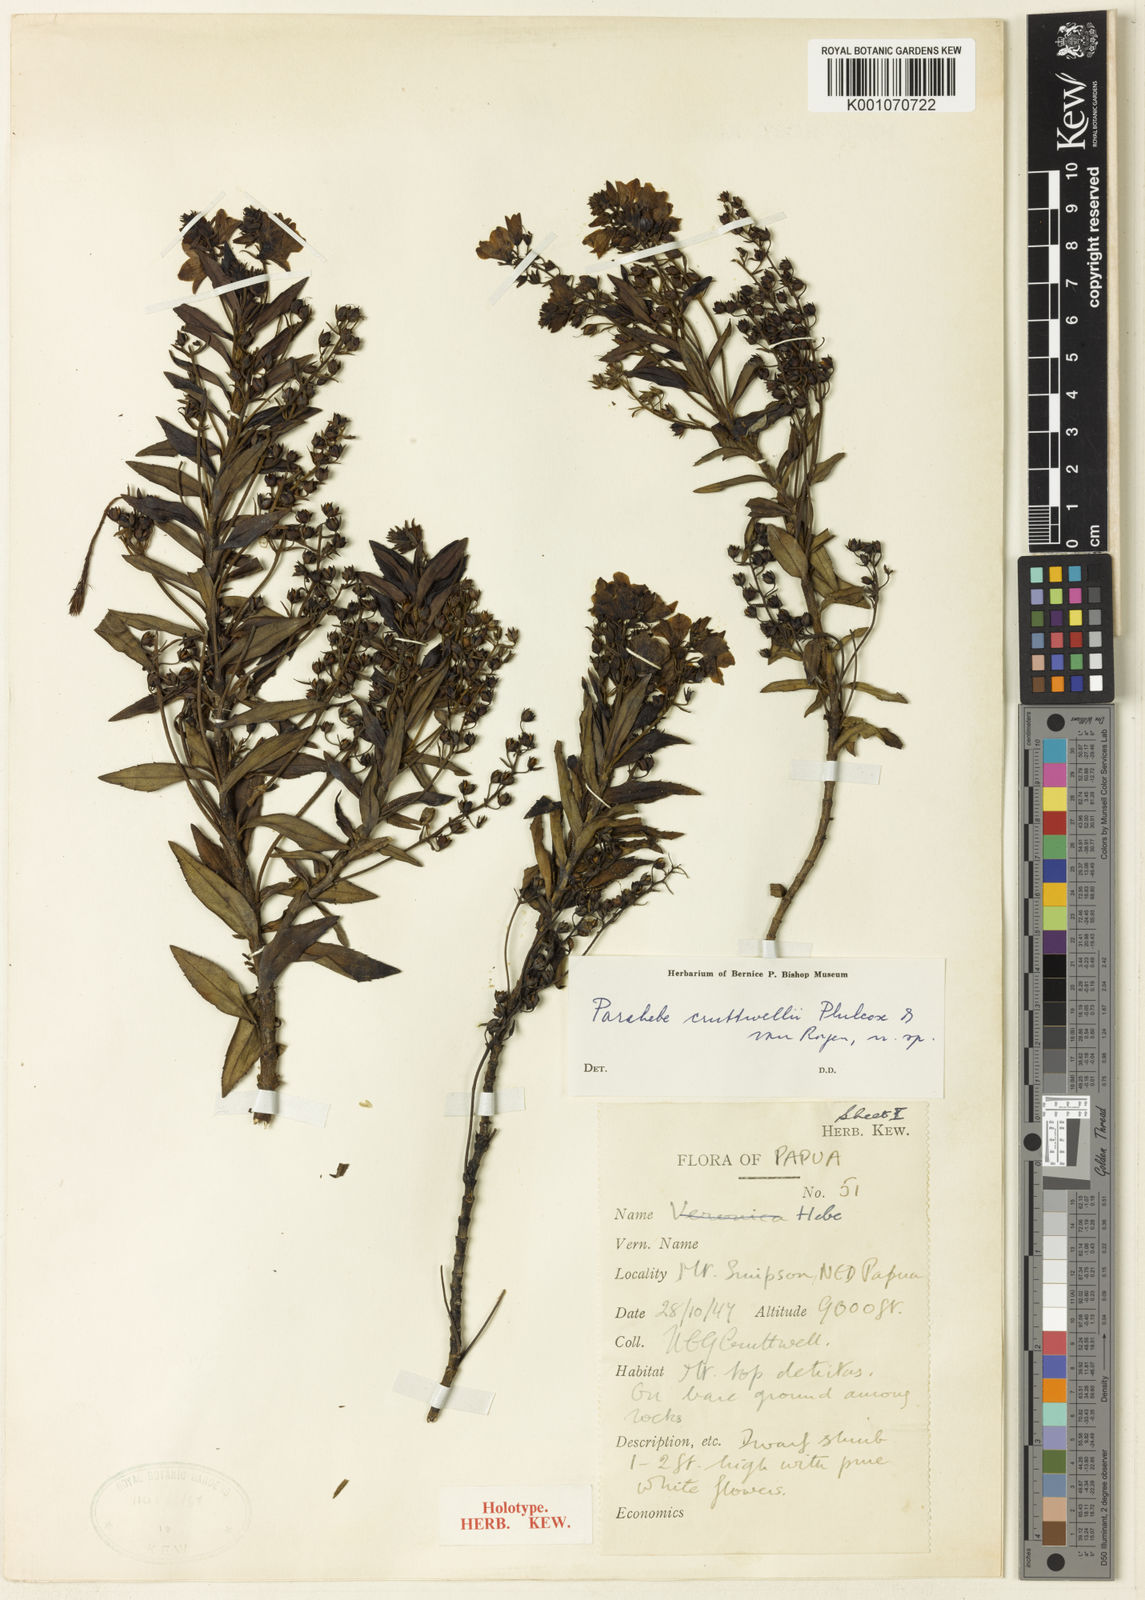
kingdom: Plantae
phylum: Tracheophyta
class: Magnoliopsida
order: Lamiales
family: Plantaginaceae
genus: Veronica
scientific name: Veronica
